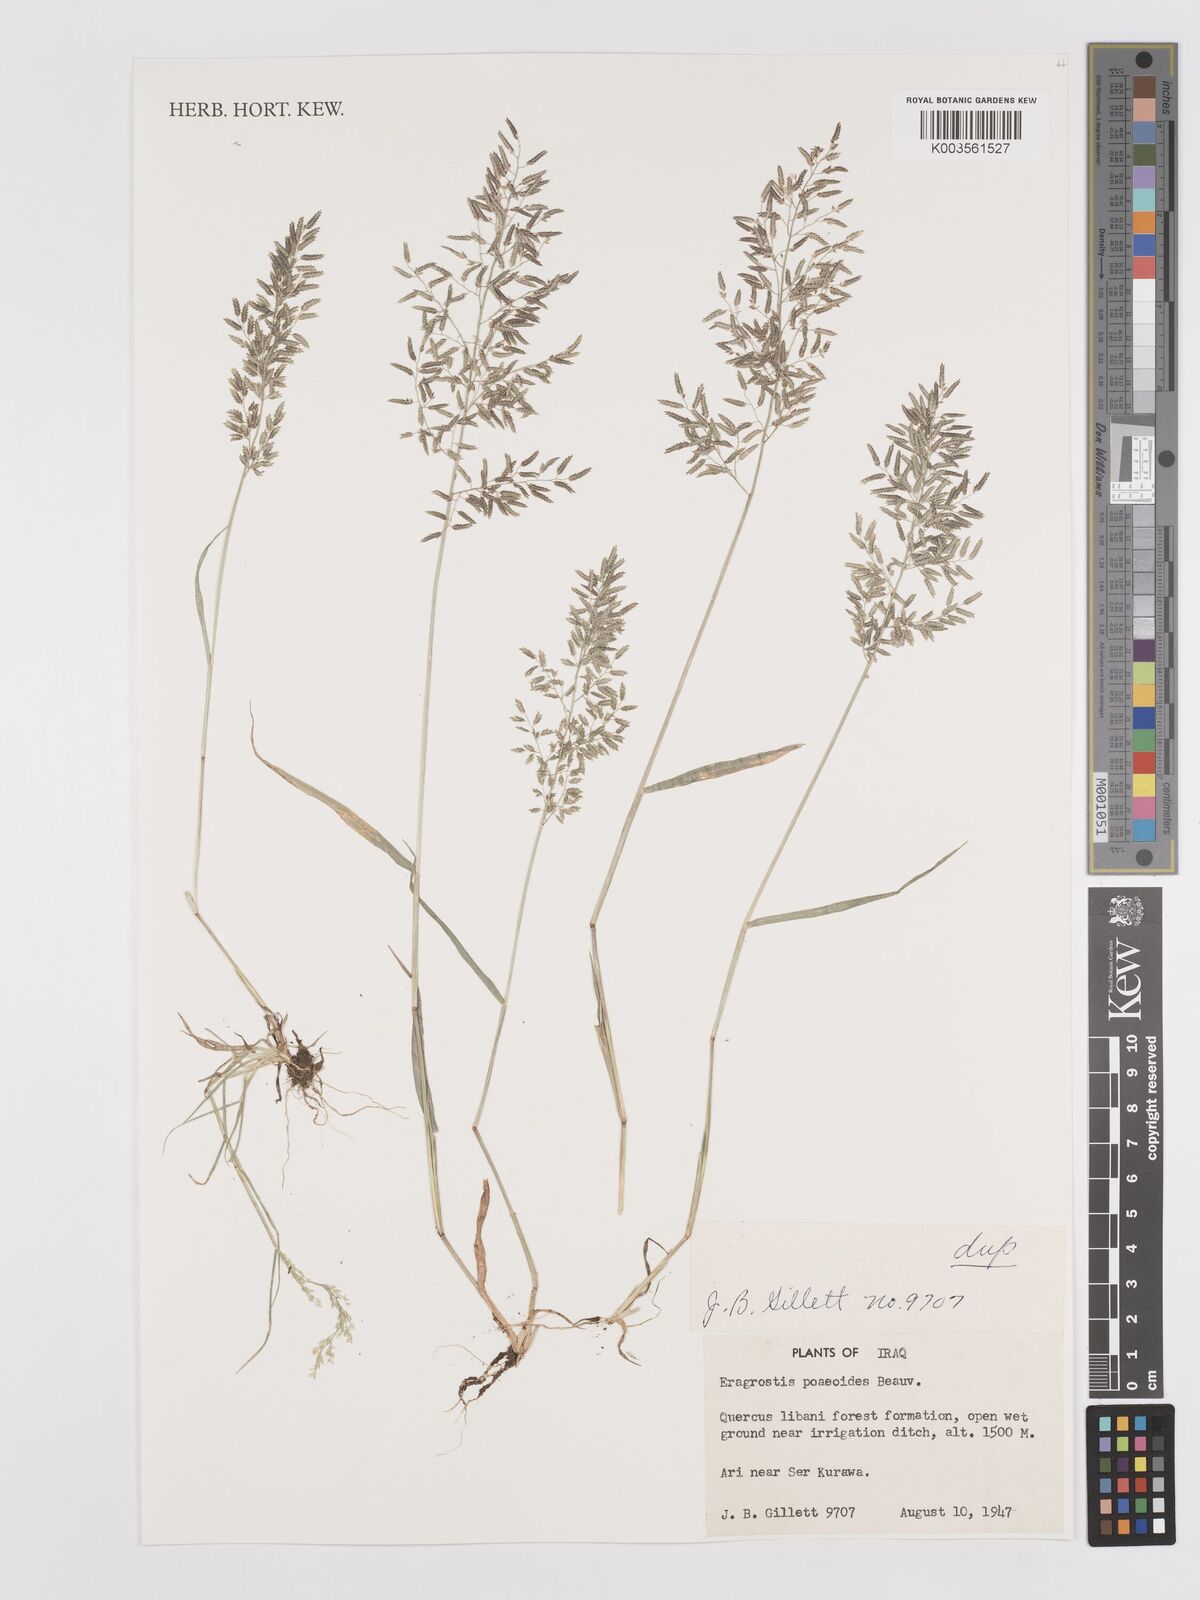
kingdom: Plantae
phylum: Tracheophyta
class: Liliopsida
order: Poales
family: Poaceae
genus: Eragrostis
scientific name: Eragrostis minor
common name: Small love-grass
